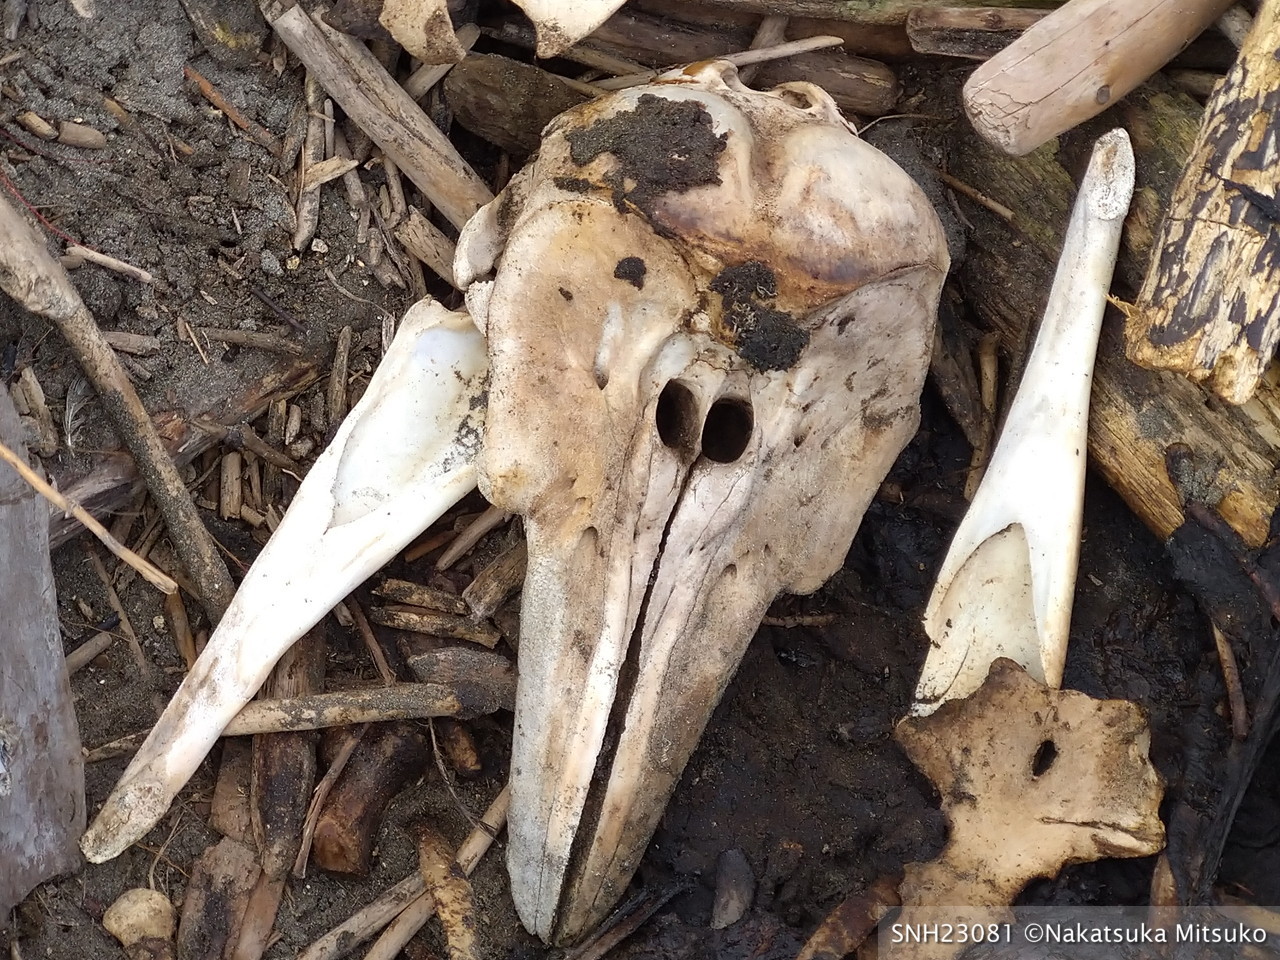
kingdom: Animalia
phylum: Chordata
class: Mammalia
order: Cetacea
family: Phocoenidae
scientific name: Phocoenidae
